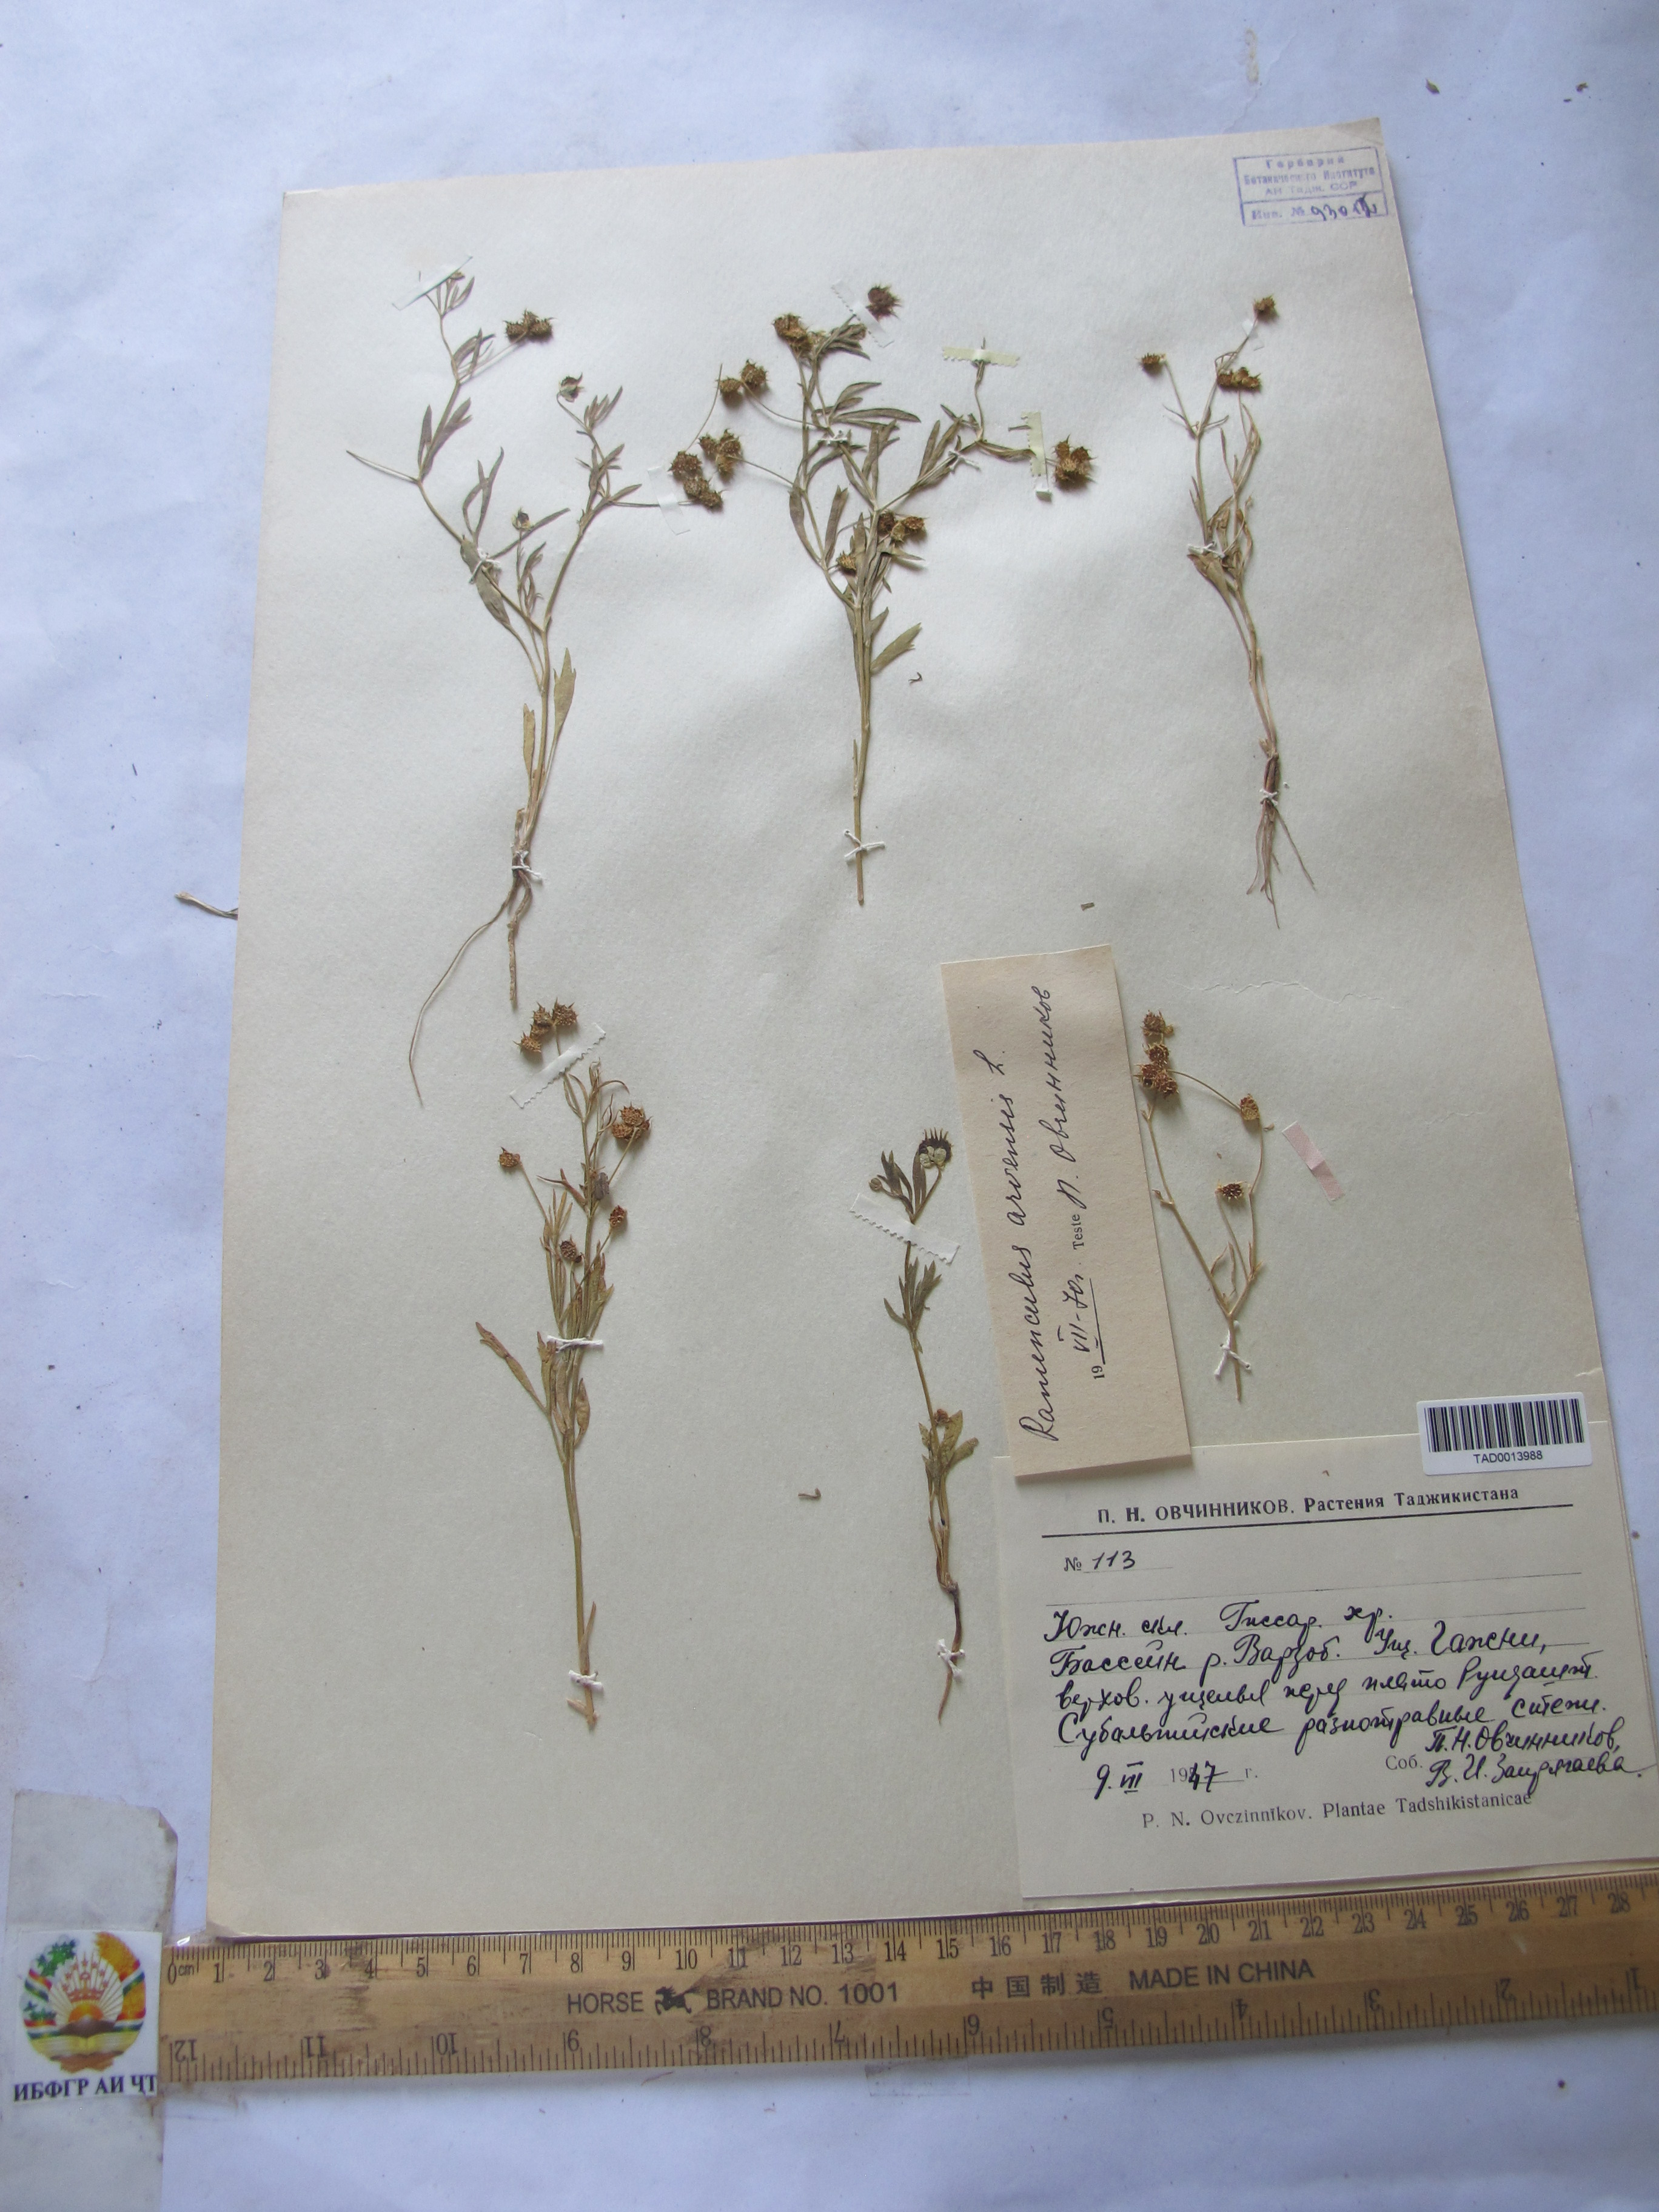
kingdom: Plantae
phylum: Tracheophyta
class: Magnoliopsida
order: Ranunculales
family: Ranunculaceae
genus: Ranunculus
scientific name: Ranunculus arvensis
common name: Corn buttercup
